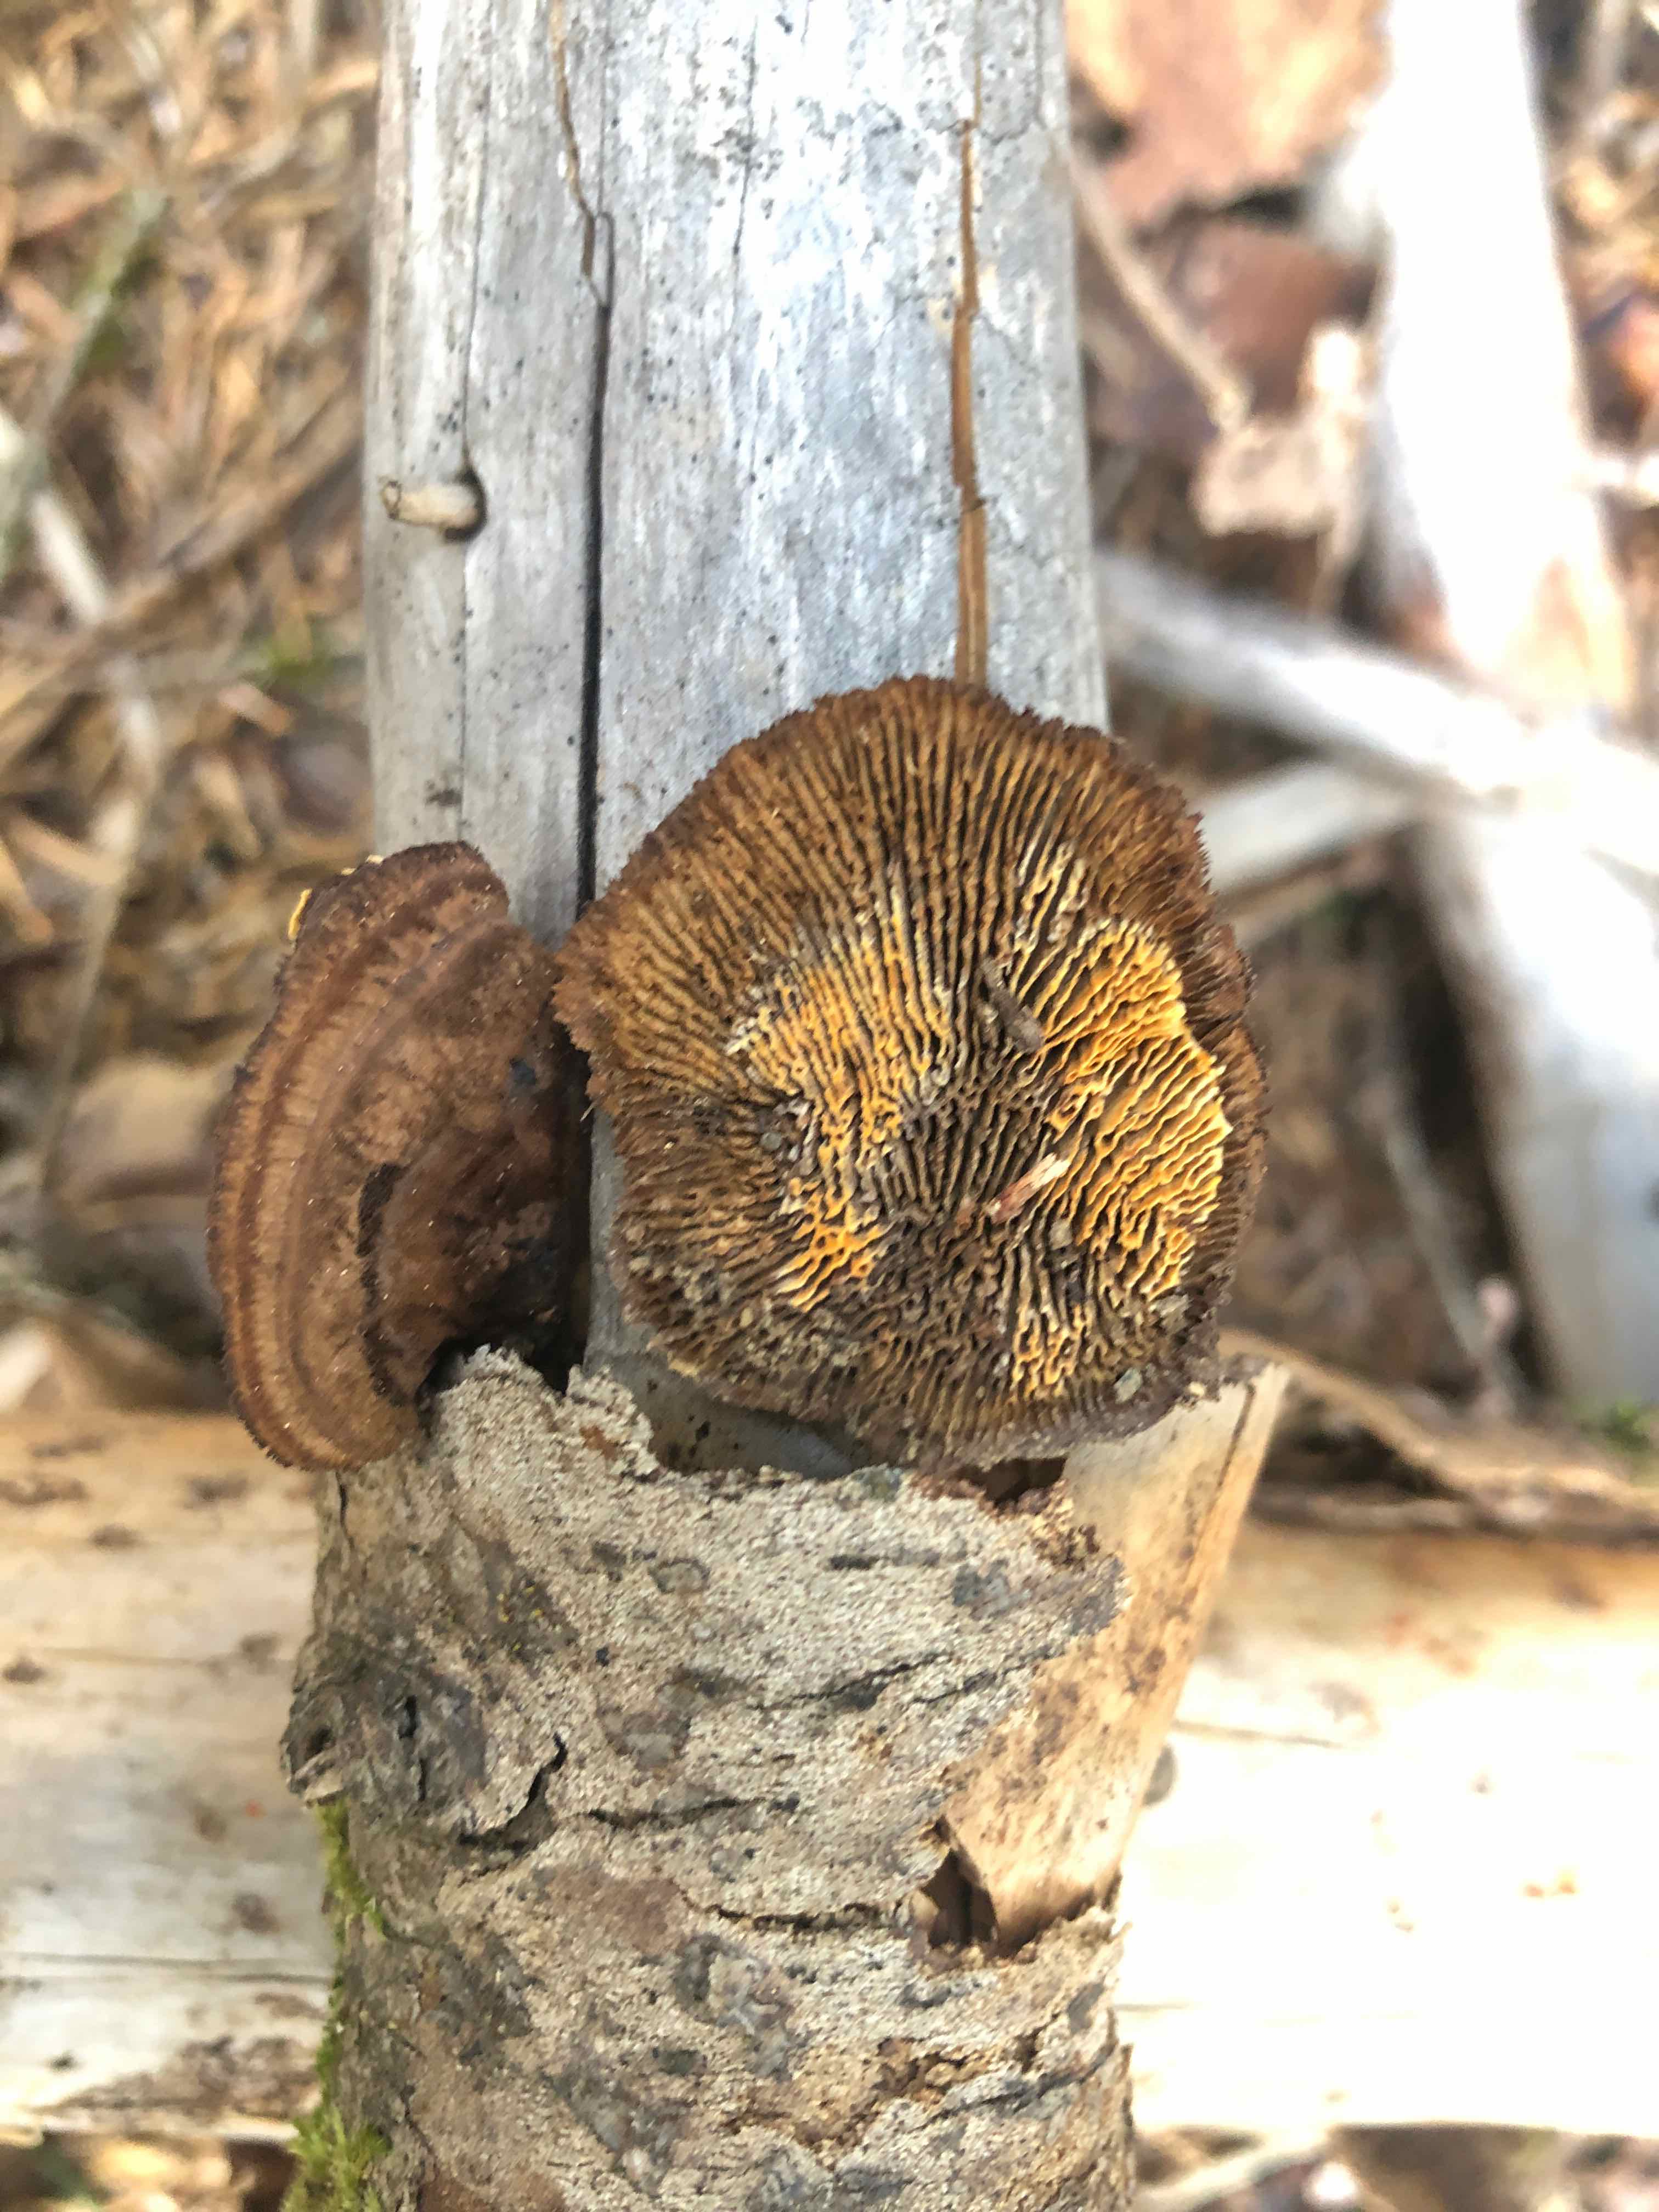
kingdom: Fungi
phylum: Basidiomycota
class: Agaricomycetes
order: Gloeophyllales
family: Gloeophyllaceae
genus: Gloeophyllum
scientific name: Gloeophyllum sepiarium
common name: fyrre-korkhat
